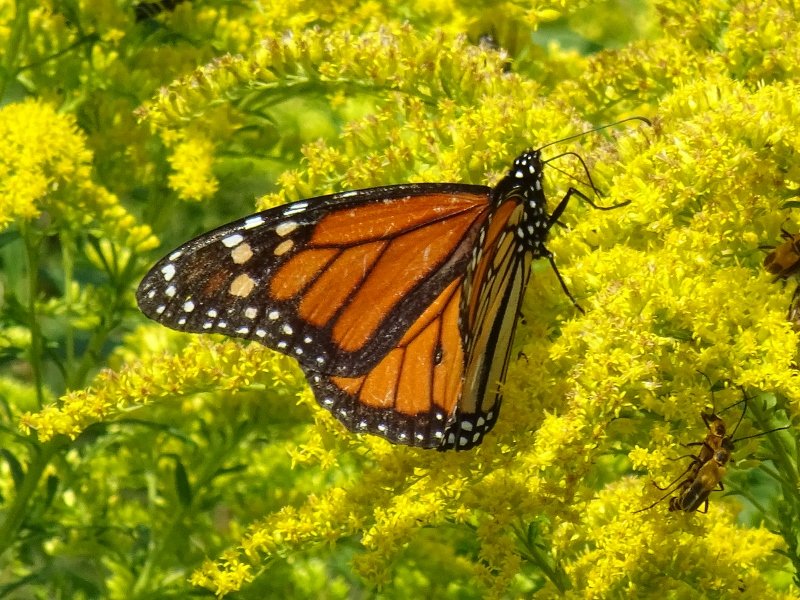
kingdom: Animalia
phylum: Arthropoda
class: Insecta
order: Lepidoptera
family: Nymphalidae
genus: Danaus
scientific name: Danaus plexippus
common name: Monarch
